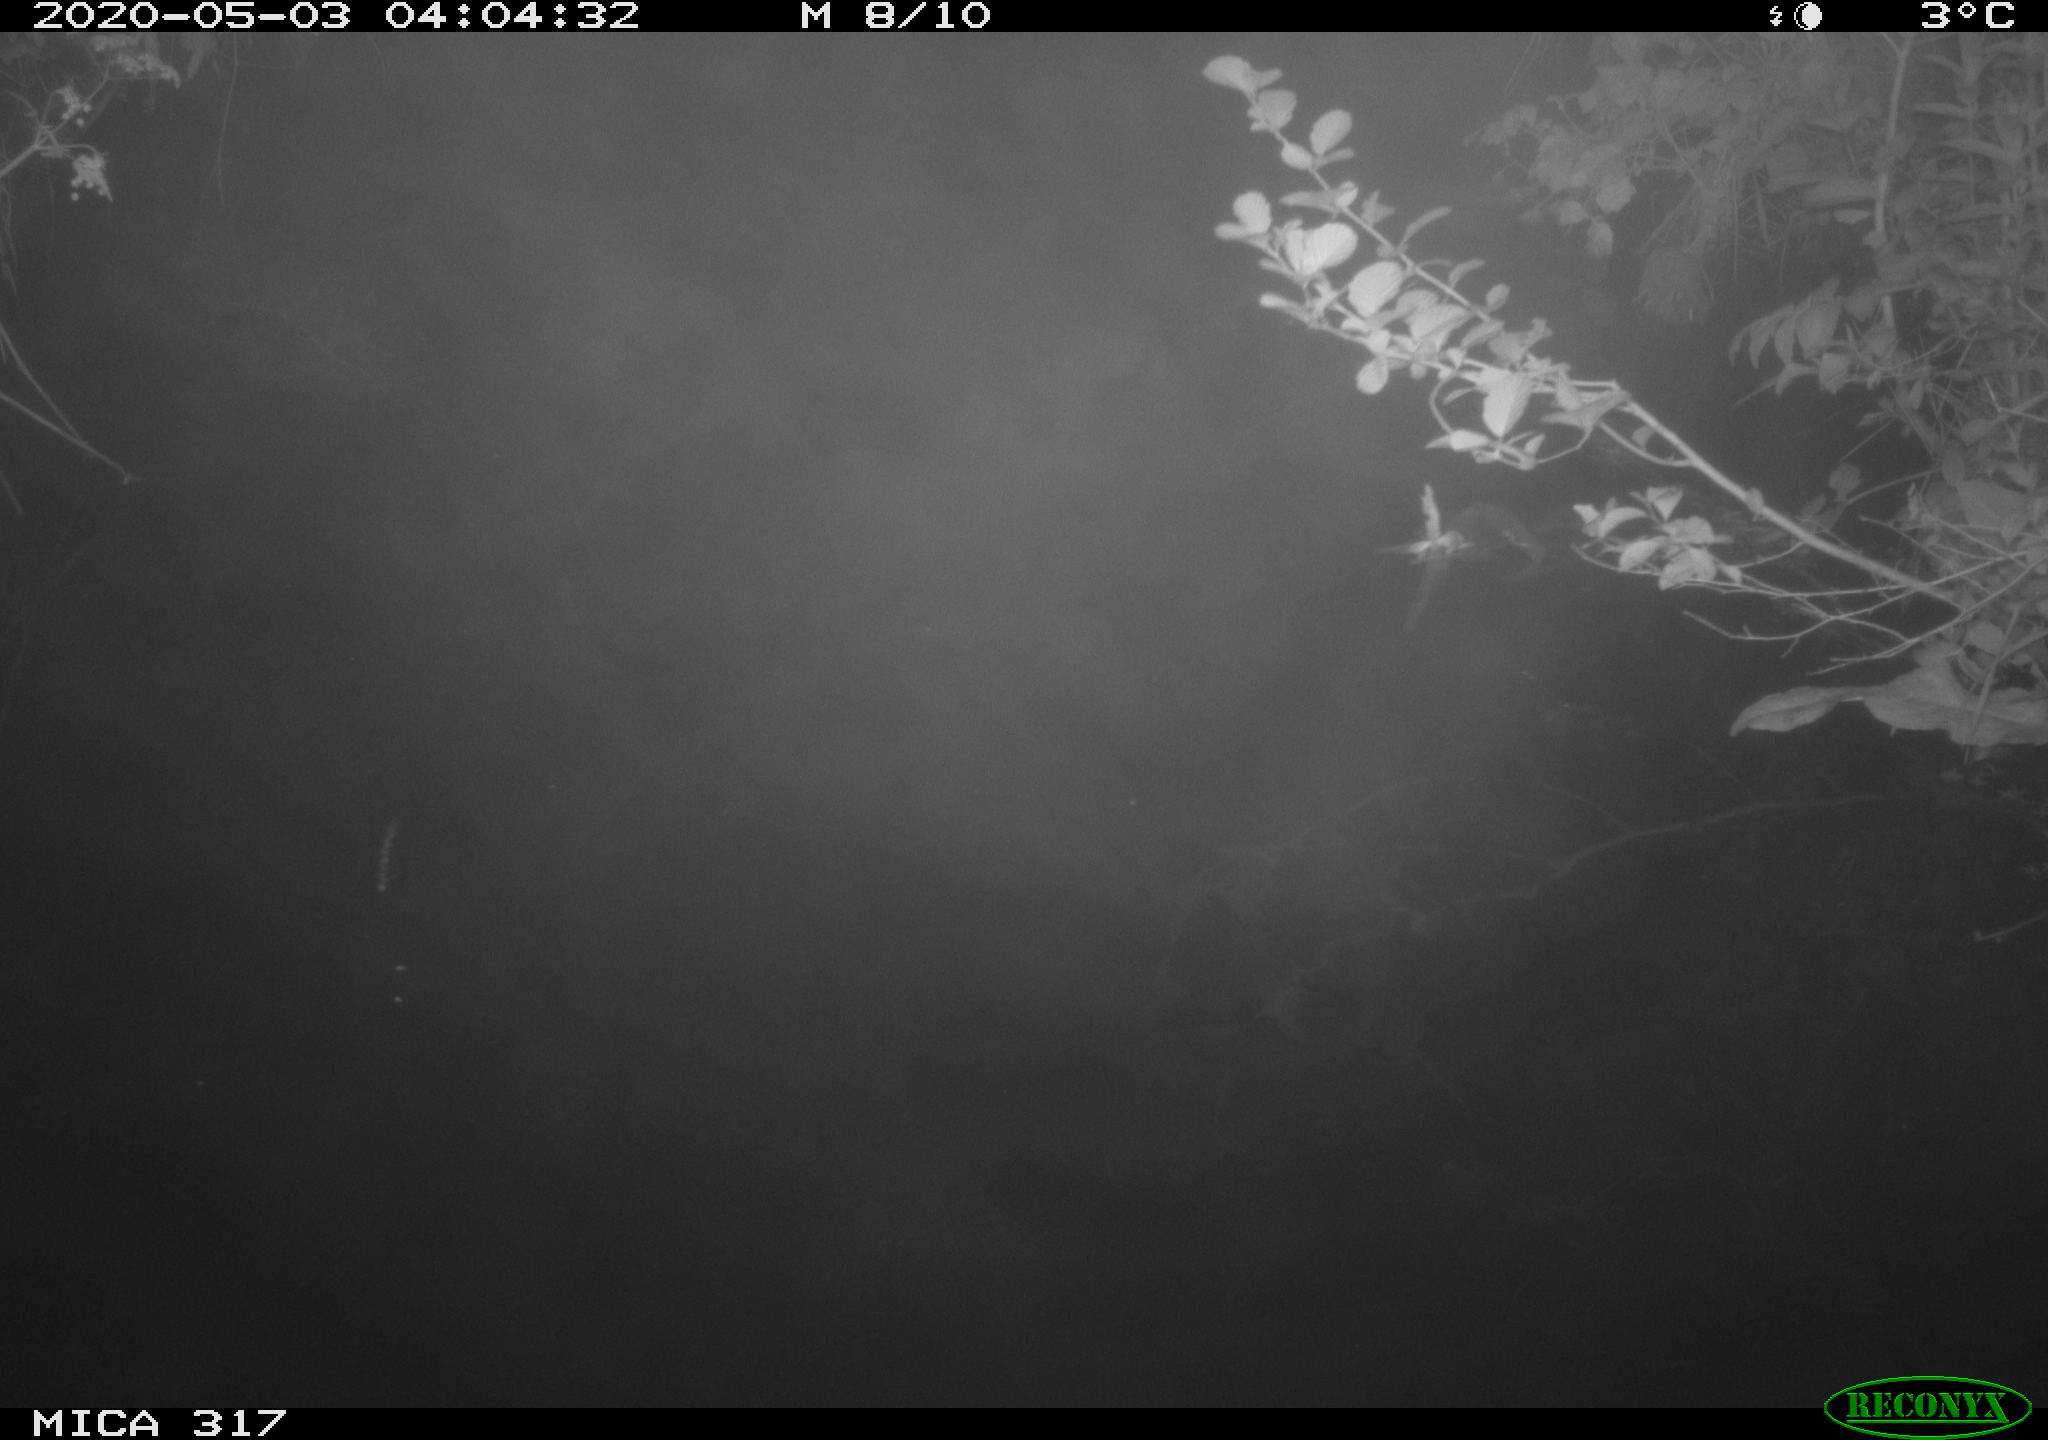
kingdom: Animalia
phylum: Chordata
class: Aves
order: Anseriformes
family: Anatidae
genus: Anas
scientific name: Anas platyrhynchos
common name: Mallard
